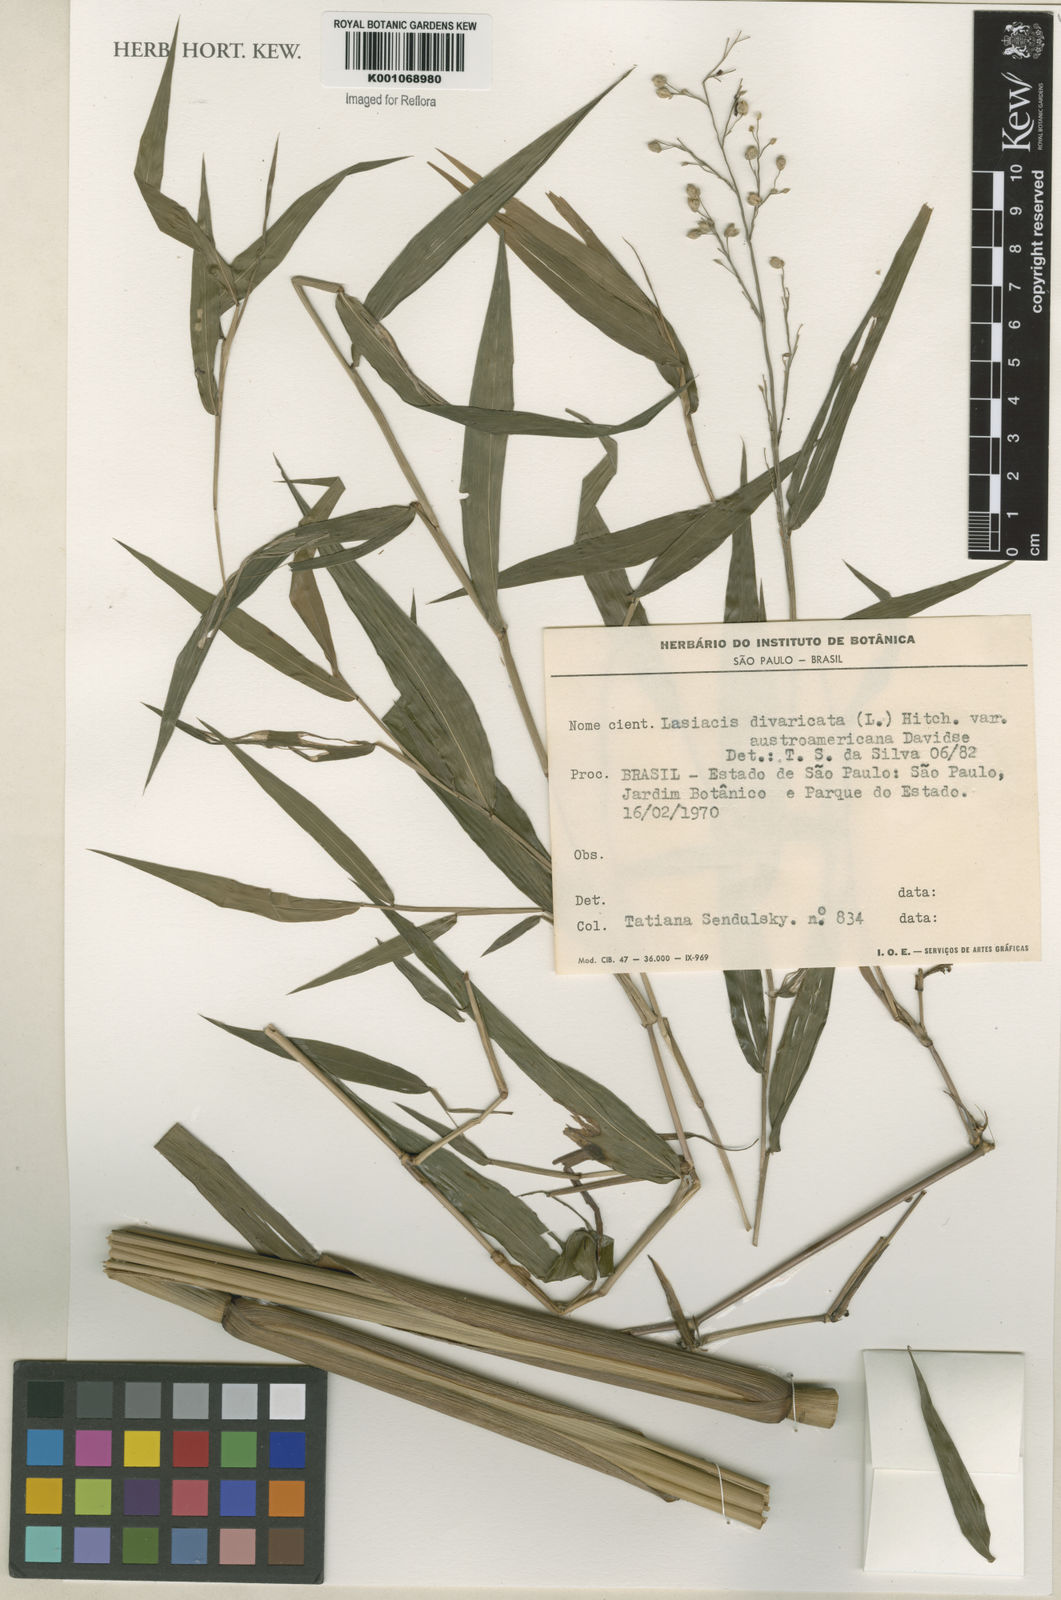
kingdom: Plantae
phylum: Tracheophyta
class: Liliopsida
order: Poales
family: Poaceae
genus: Lasiacis
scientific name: Lasiacis divaricata
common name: Smallcane
